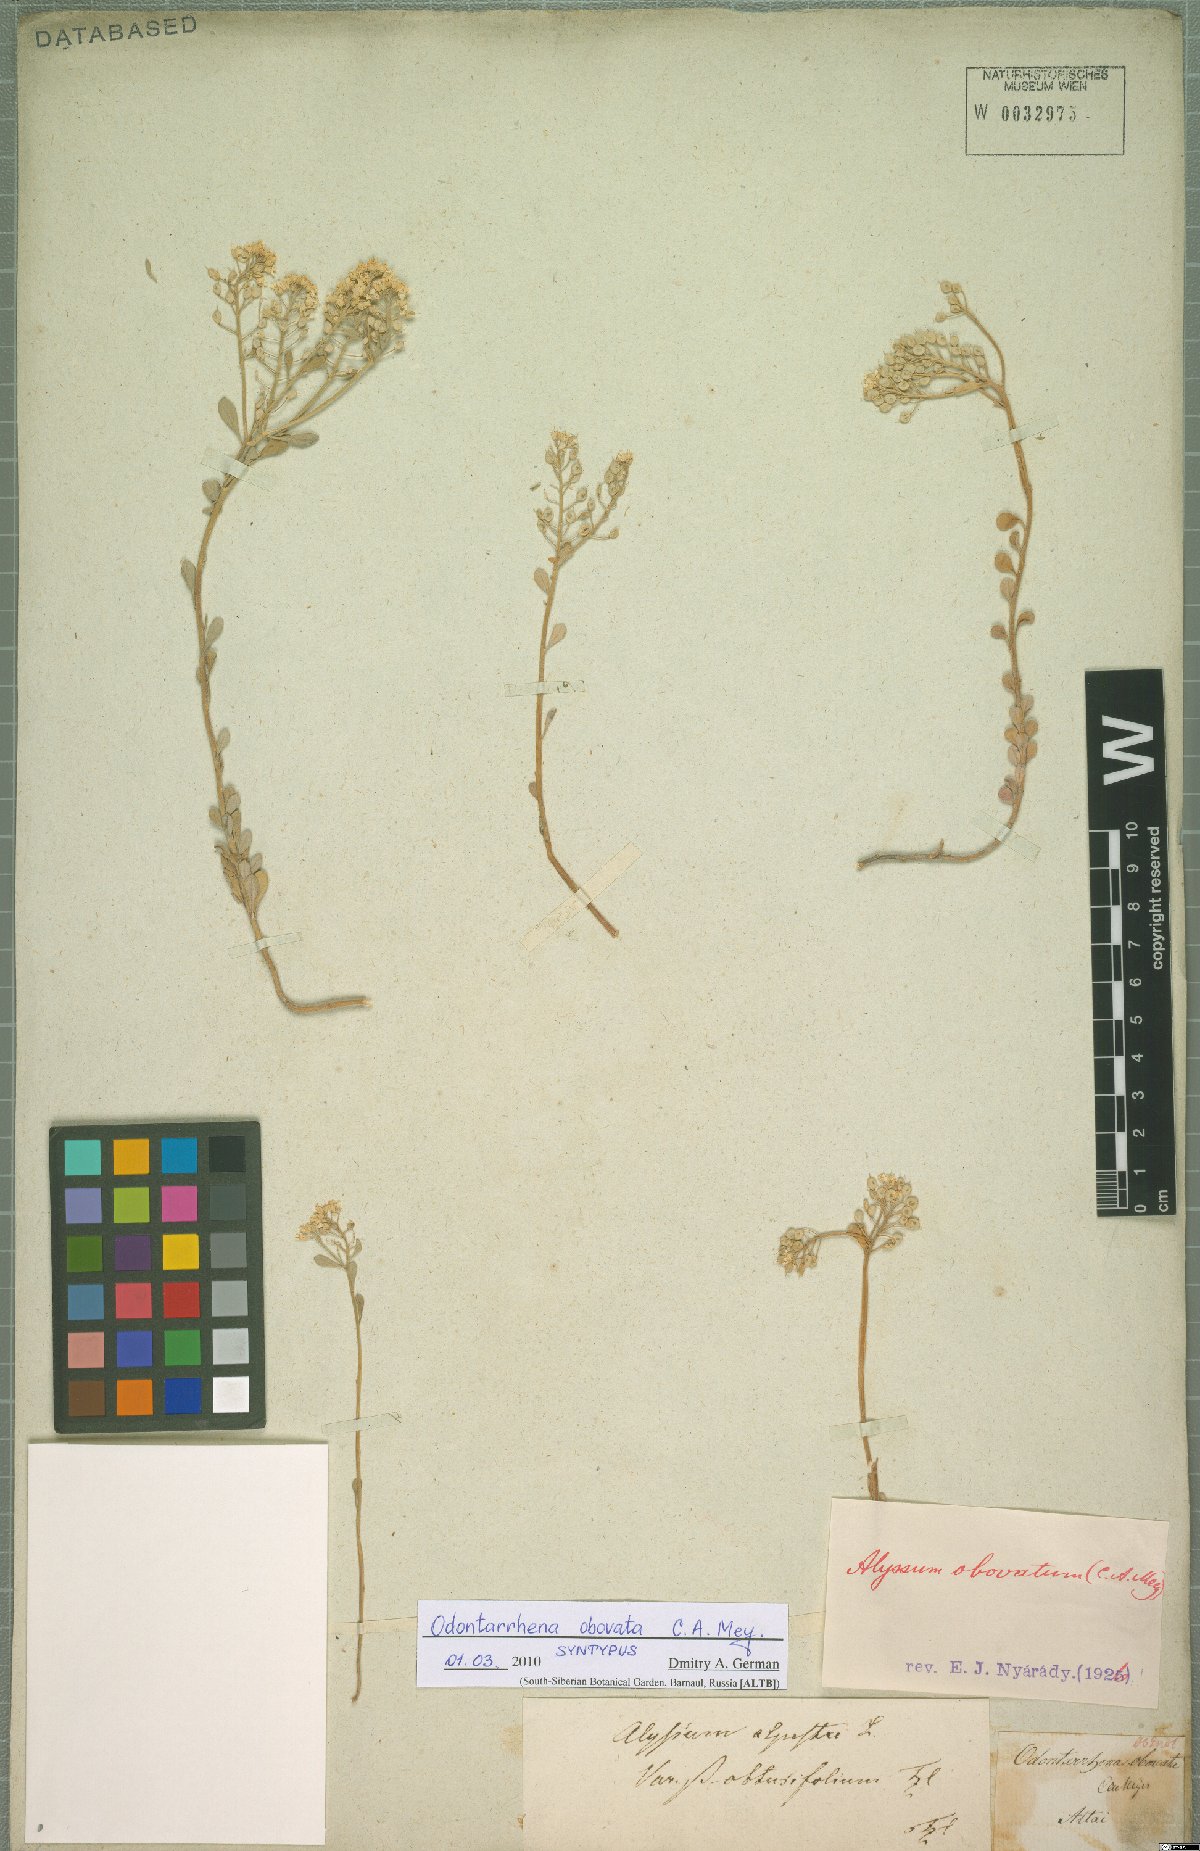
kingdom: Plantae
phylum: Tracheophyta
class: Magnoliopsida
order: Brassicales
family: Brassicaceae
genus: Odontarrhena
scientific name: Odontarrhena obovata
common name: American alyssum
